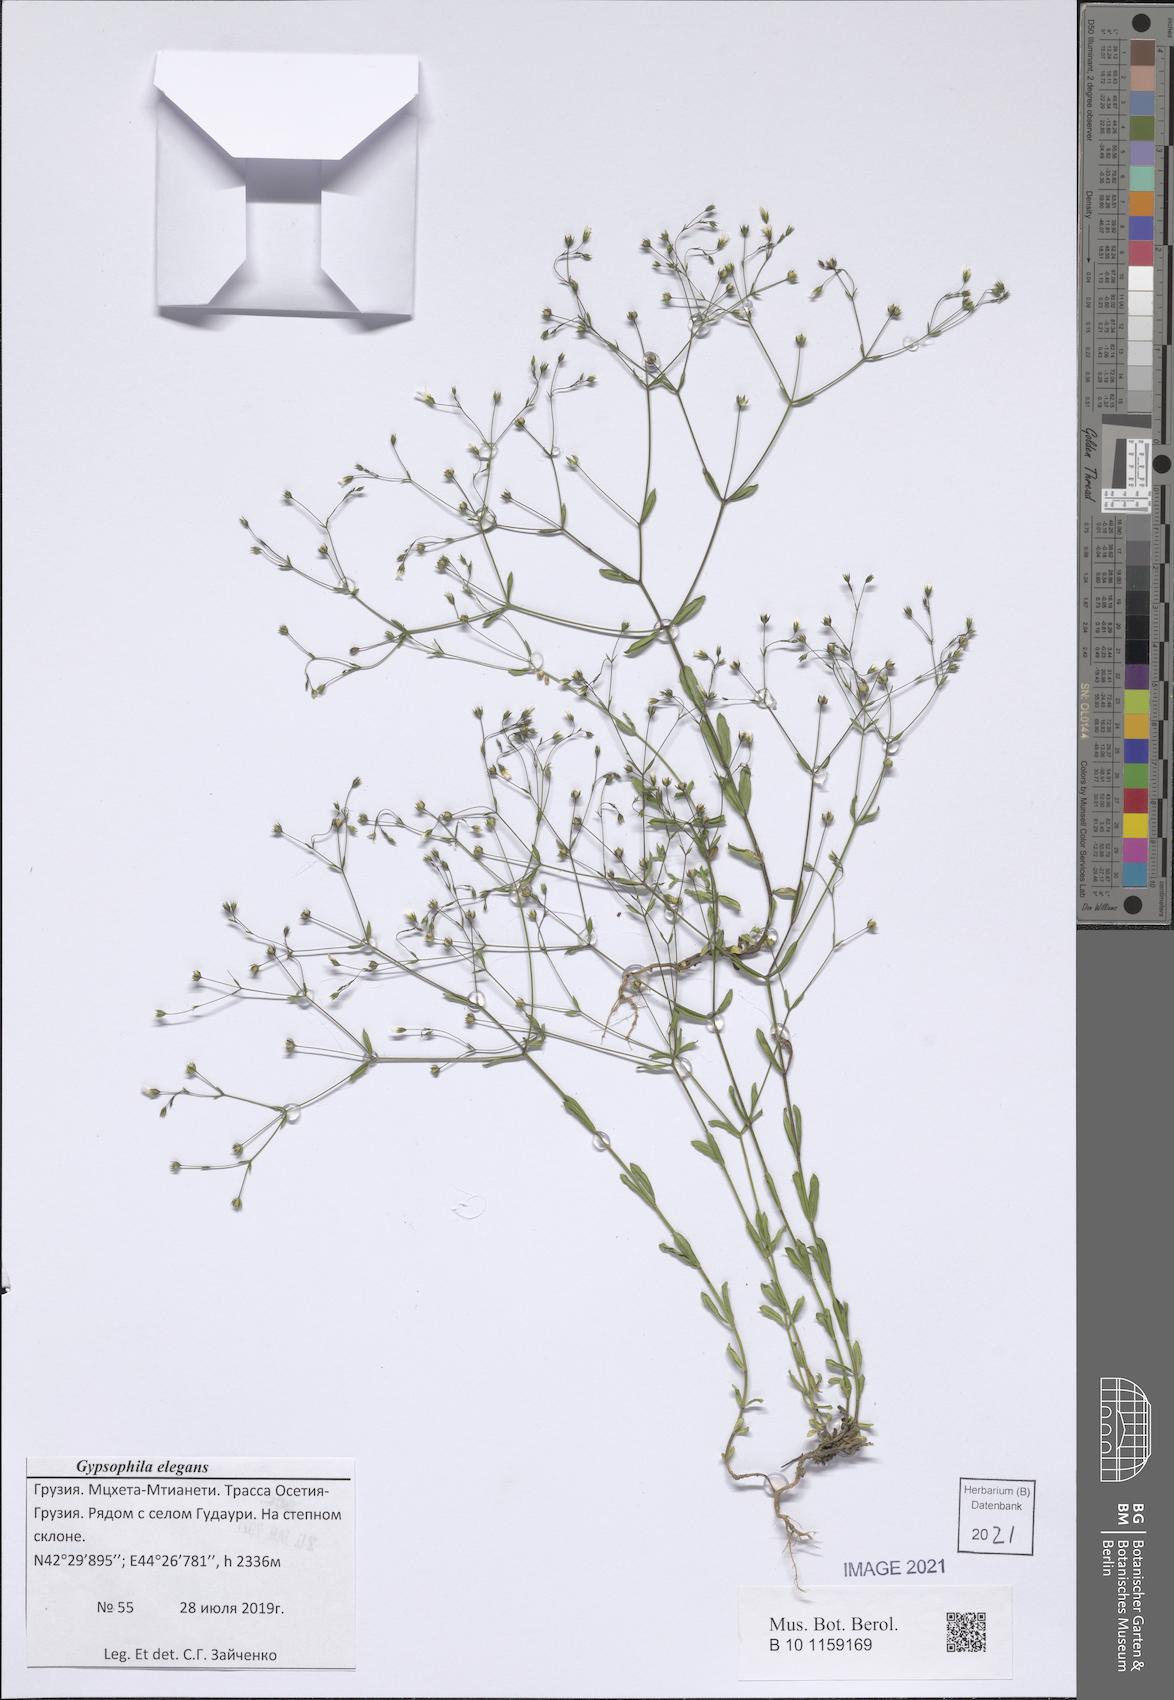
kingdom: Plantae
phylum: Tracheophyta
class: Magnoliopsida
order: Caryophyllales
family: Caryophyllaceae
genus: Gypsophila
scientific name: Gypsophila elegans
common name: Showy baby's-breath
